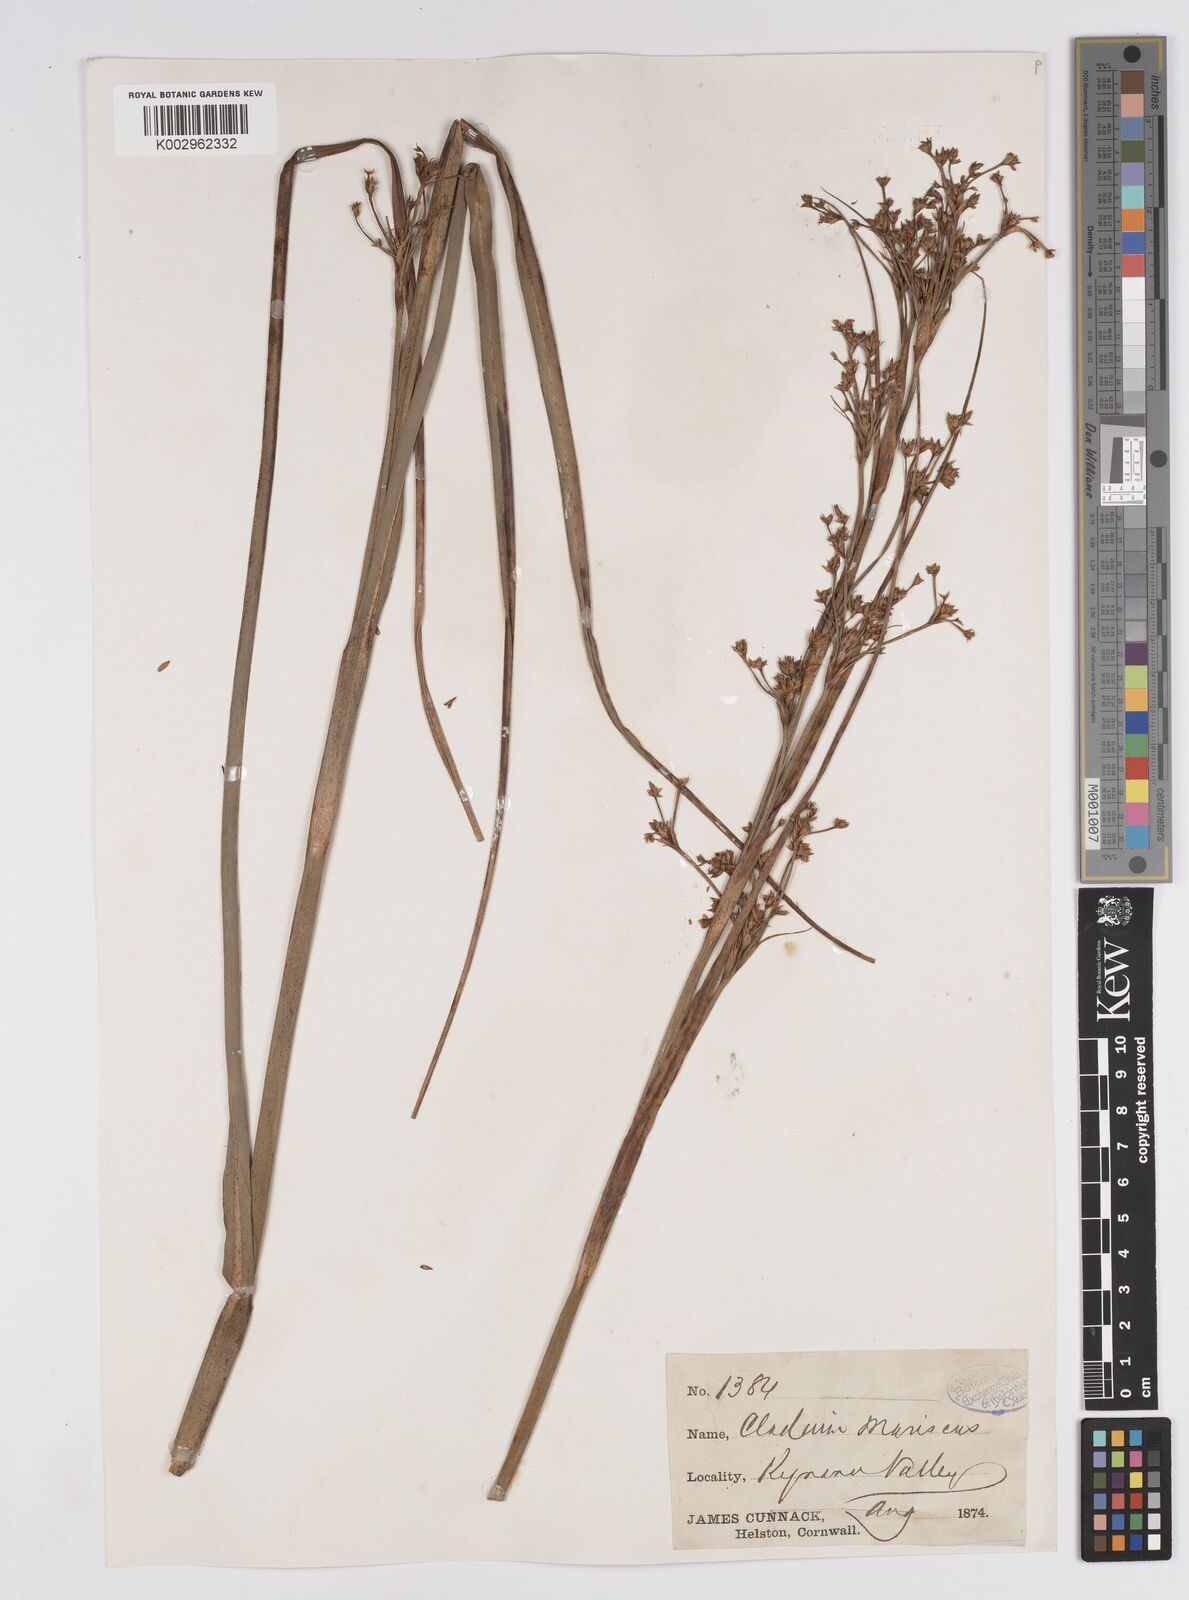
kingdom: Plantae
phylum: Tracheophyta
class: Liliopsida
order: Poales
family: Cyperaceae
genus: Cladium
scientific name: Cladium mariscus
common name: Great fen-sedge
